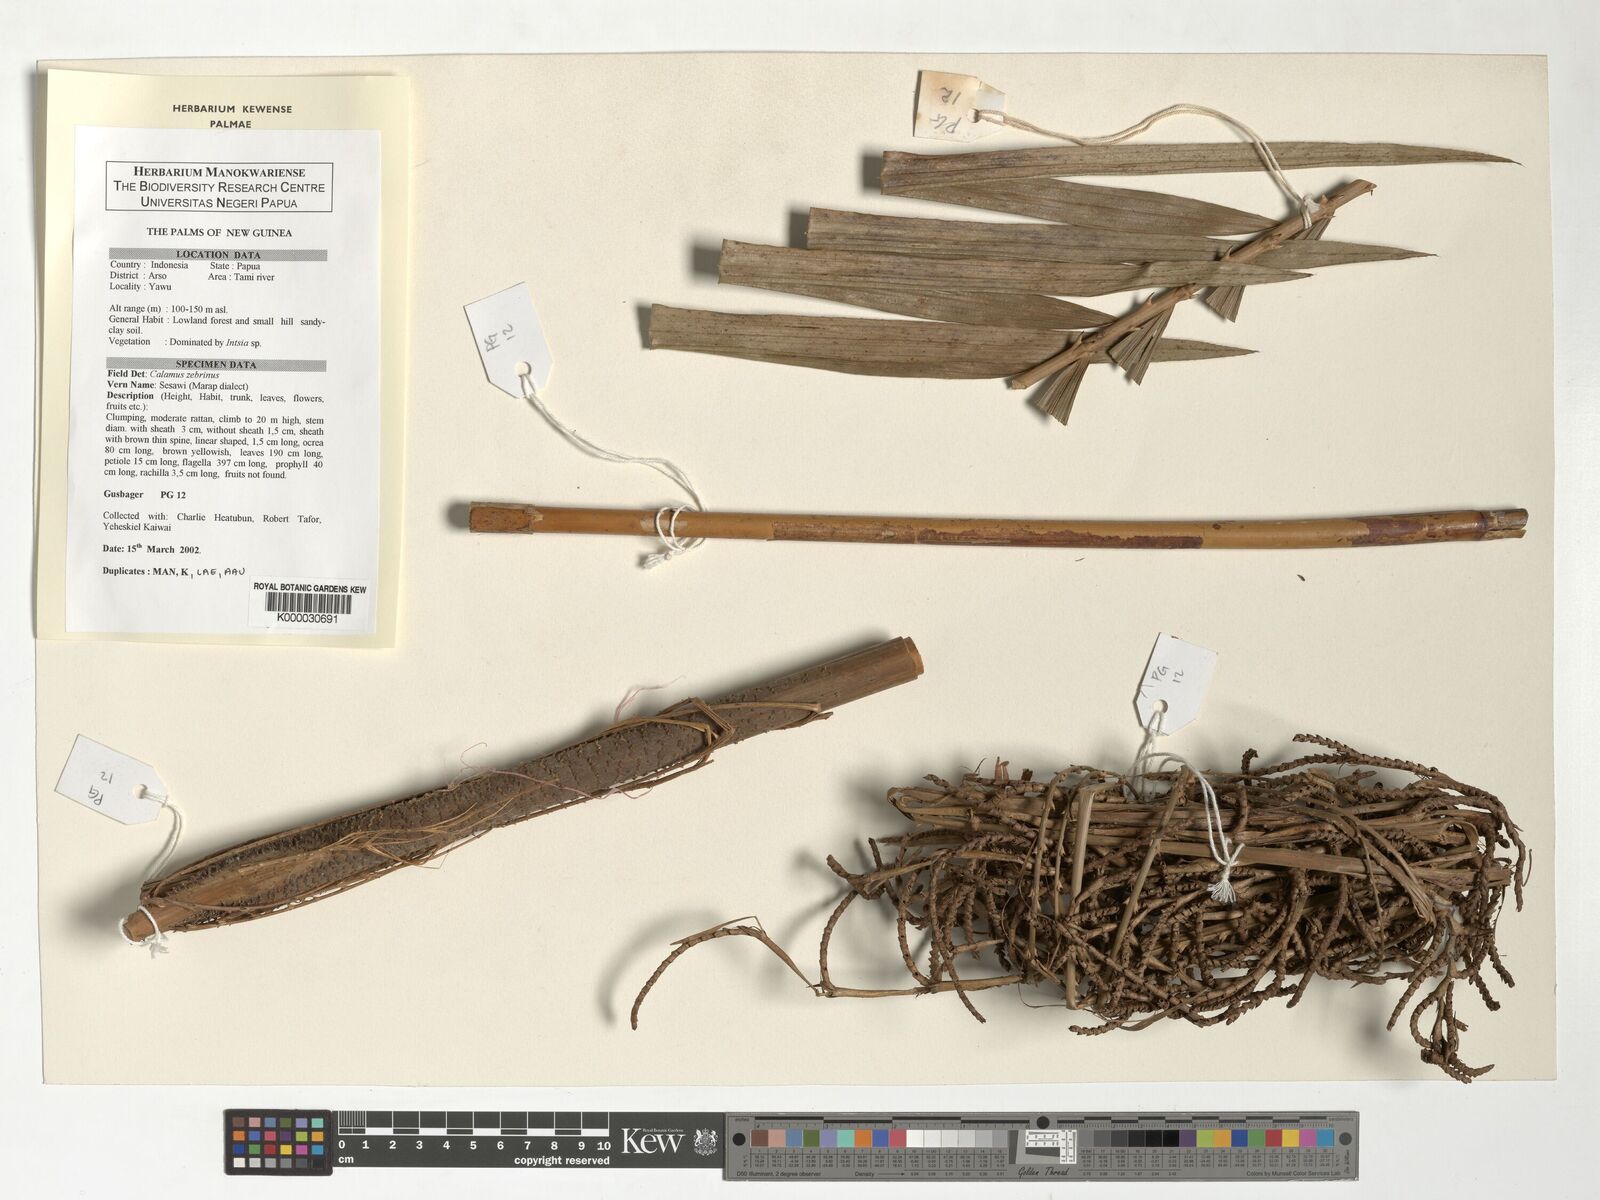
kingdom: Plantae
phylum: Tracheophyta
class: Liliopsida
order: Arecales
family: Arecaceae
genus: Calamus
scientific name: Calamus zebrinus
